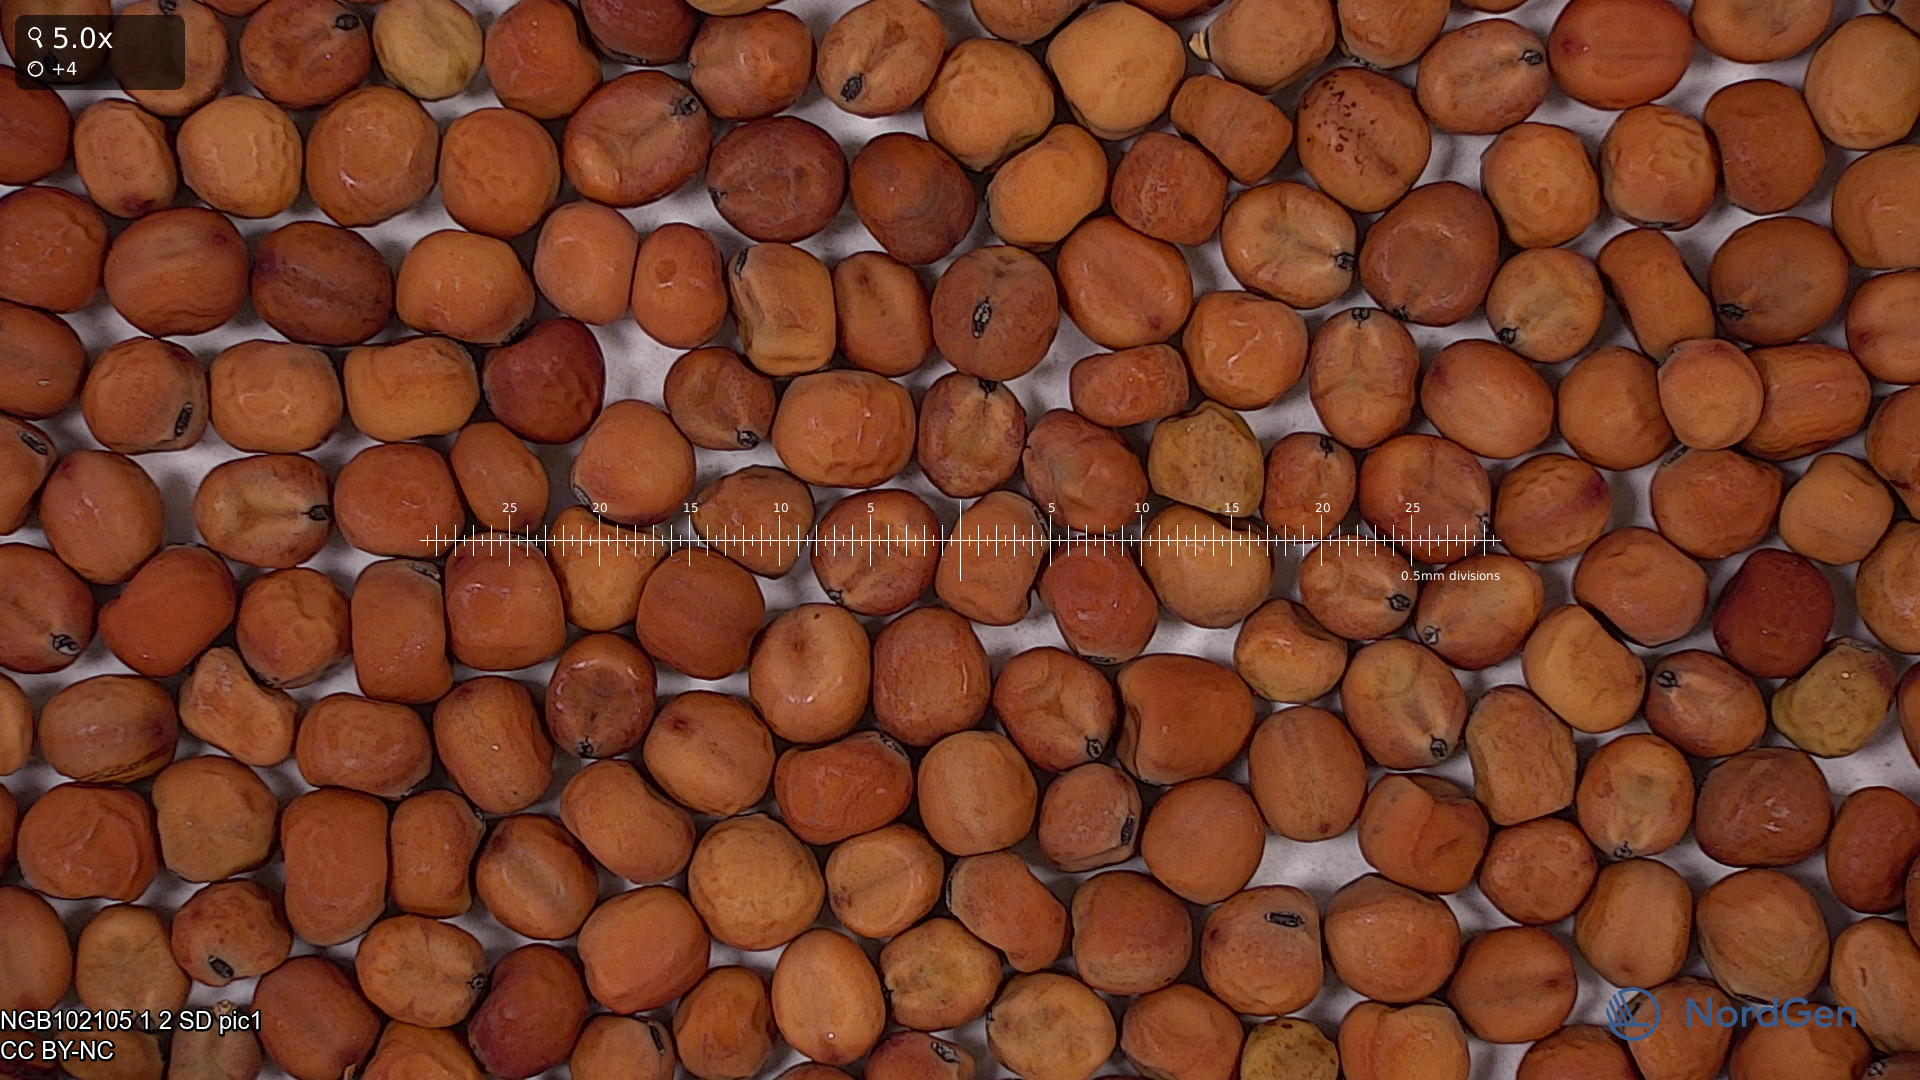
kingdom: Plantae
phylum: Tracheophyta
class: Magnoliopsida
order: Fabales
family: Fabaceae
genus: Lathyrus
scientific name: Lathyrus oleraceus
